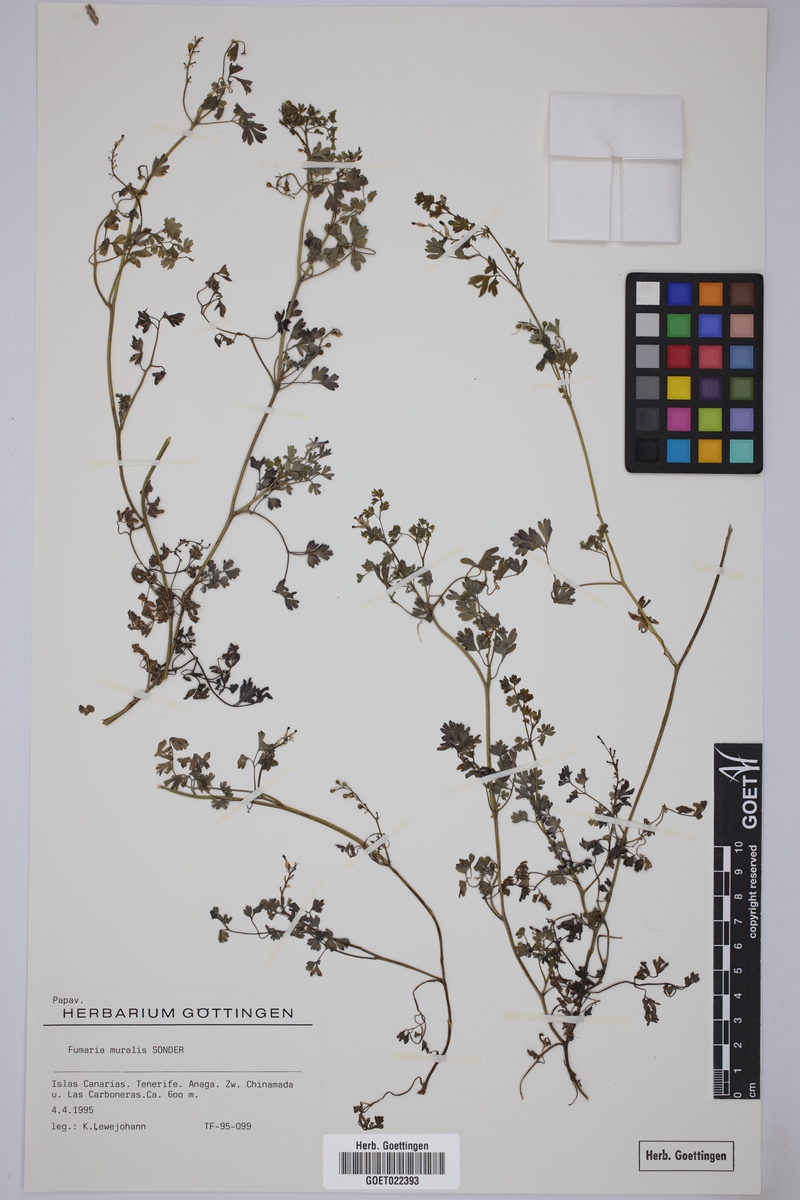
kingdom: Plantae
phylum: Tracheophyta
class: Magnoliopsida
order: Ranunculales
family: Papaveraceae
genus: Fumaria
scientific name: Fumaria muralis
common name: Common ramping-fumitory
